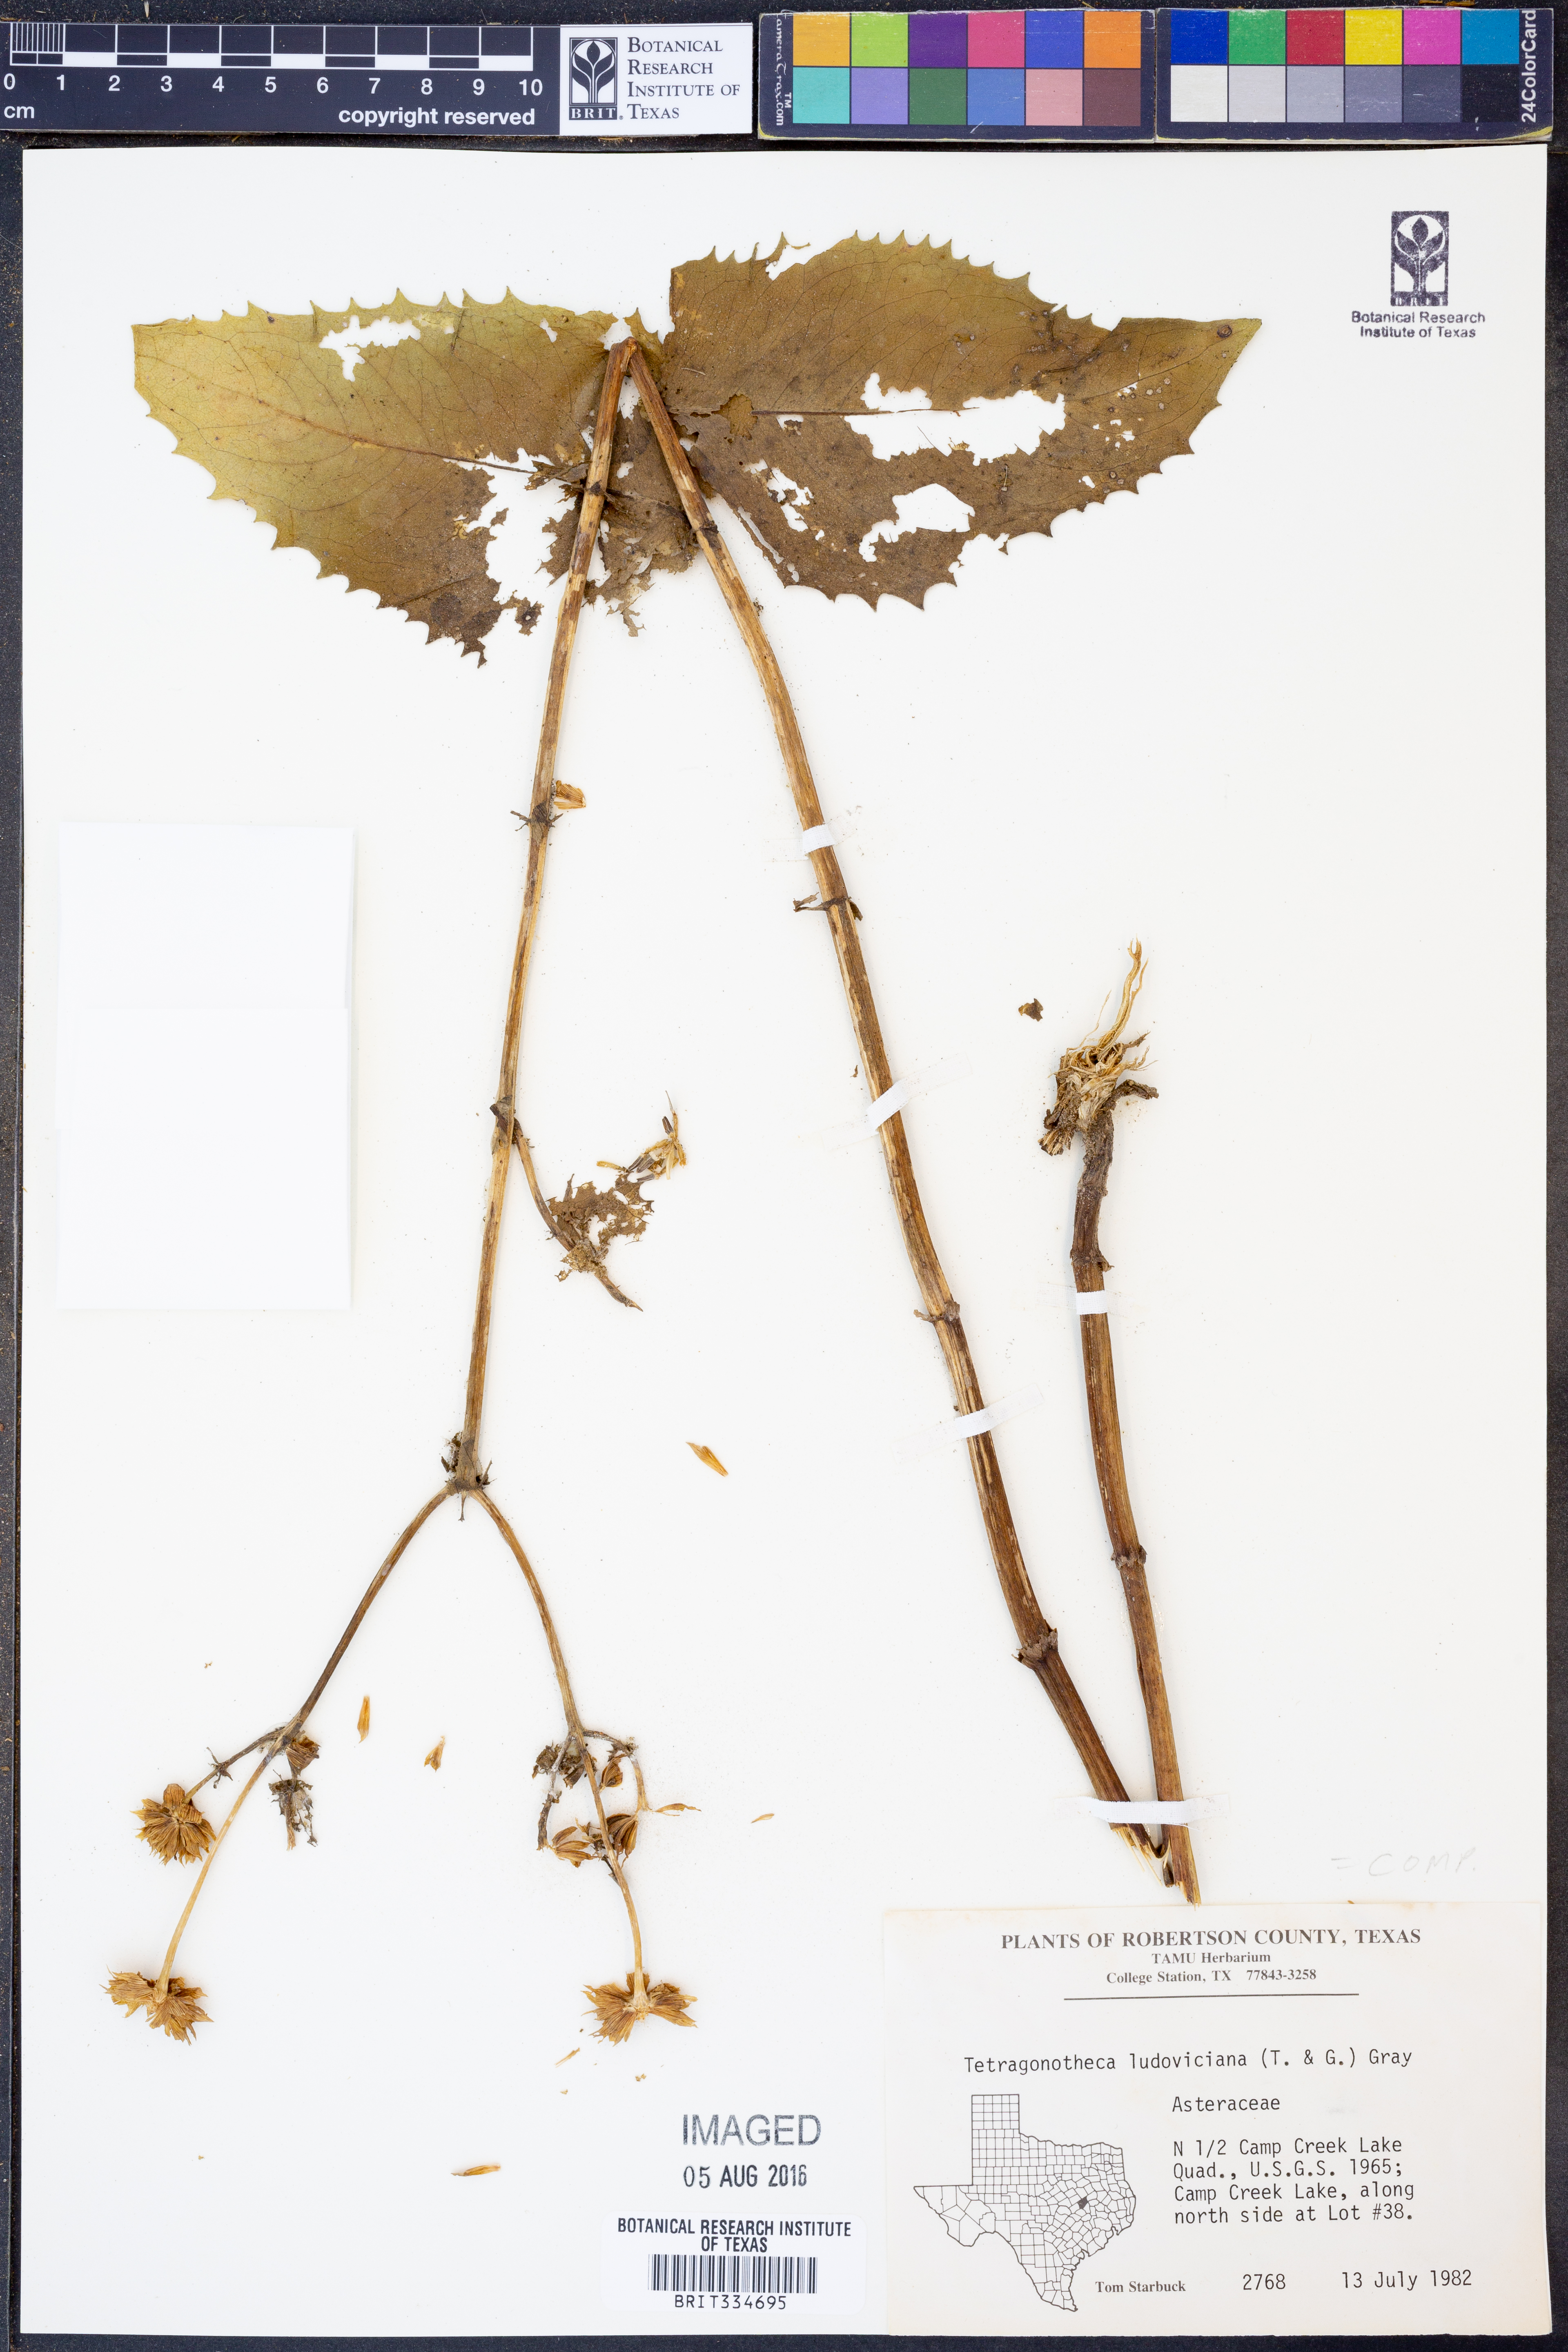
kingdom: Plantae
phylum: Tracheophyta
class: Magnoliopsida
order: Asterales
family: Asteraceae
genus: Tetragonotheca
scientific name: Tetragonotheca ludoviciana
